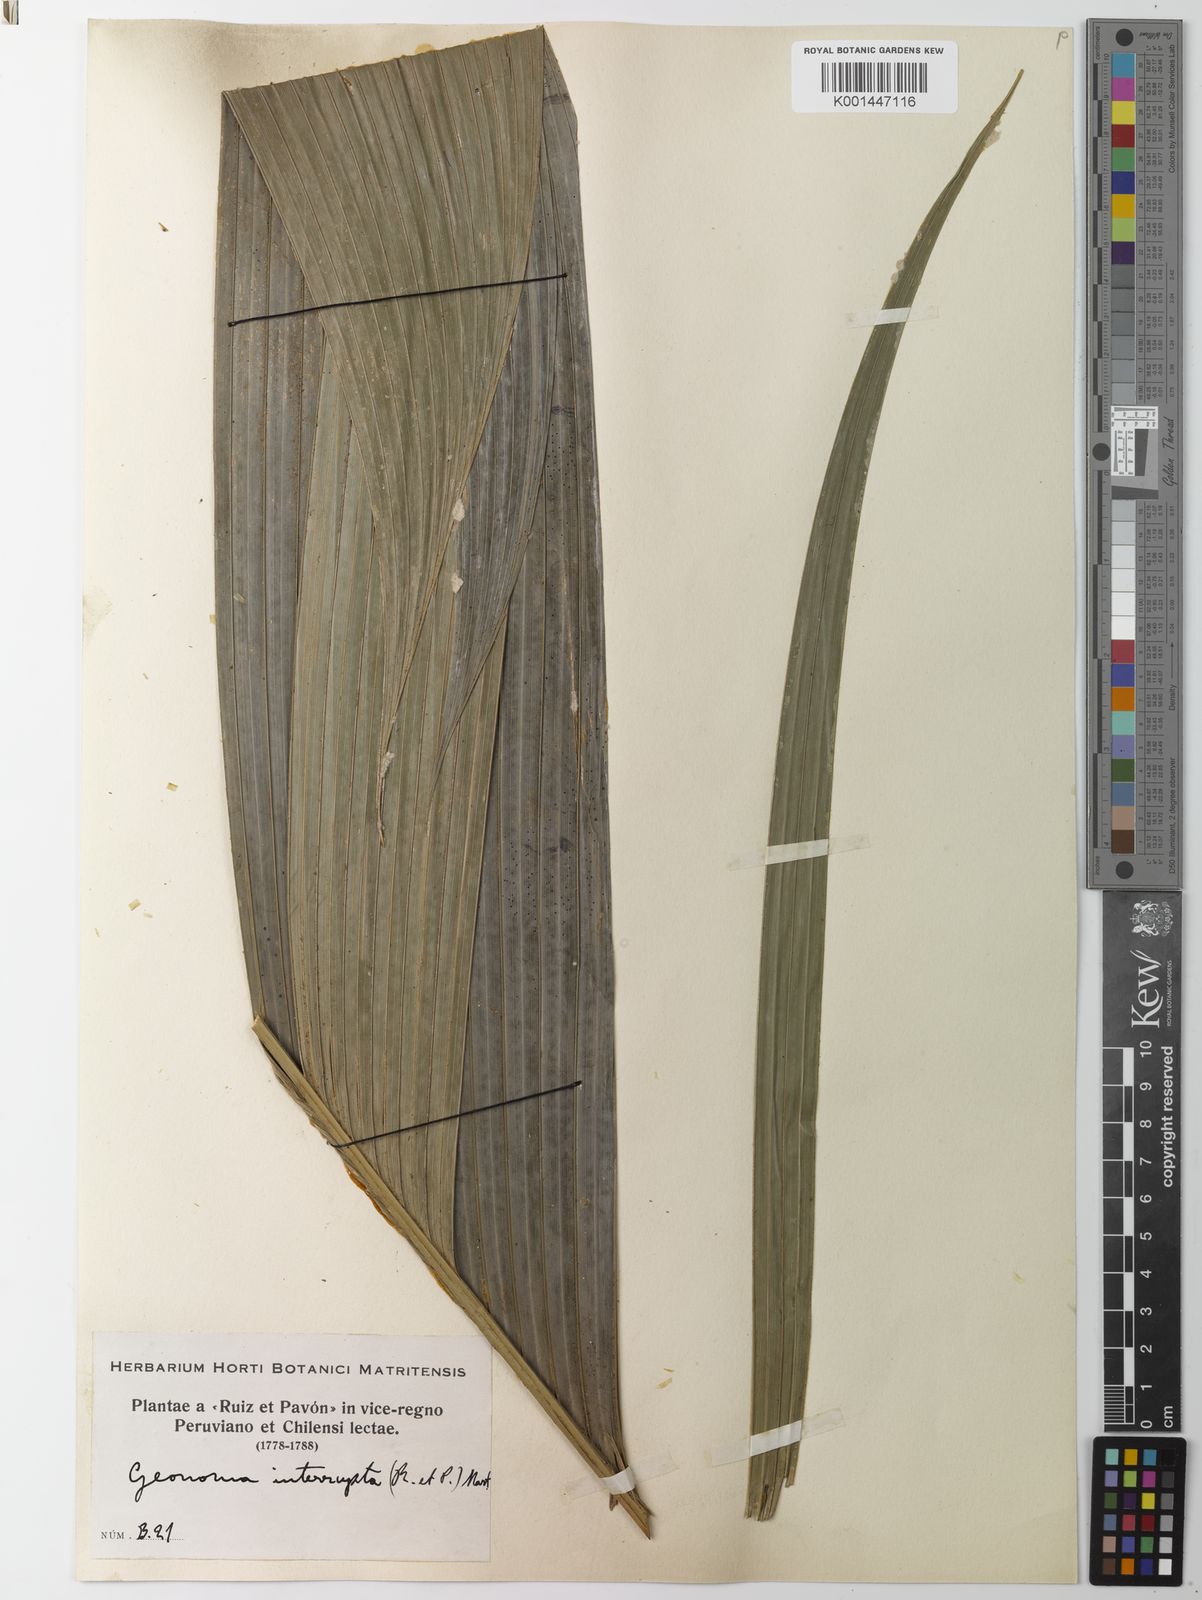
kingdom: Plantae
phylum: Tracheophyta
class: Liliopsida
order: Arecales
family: Arecaceae
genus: Geonoma
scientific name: Geonoma interrupta
